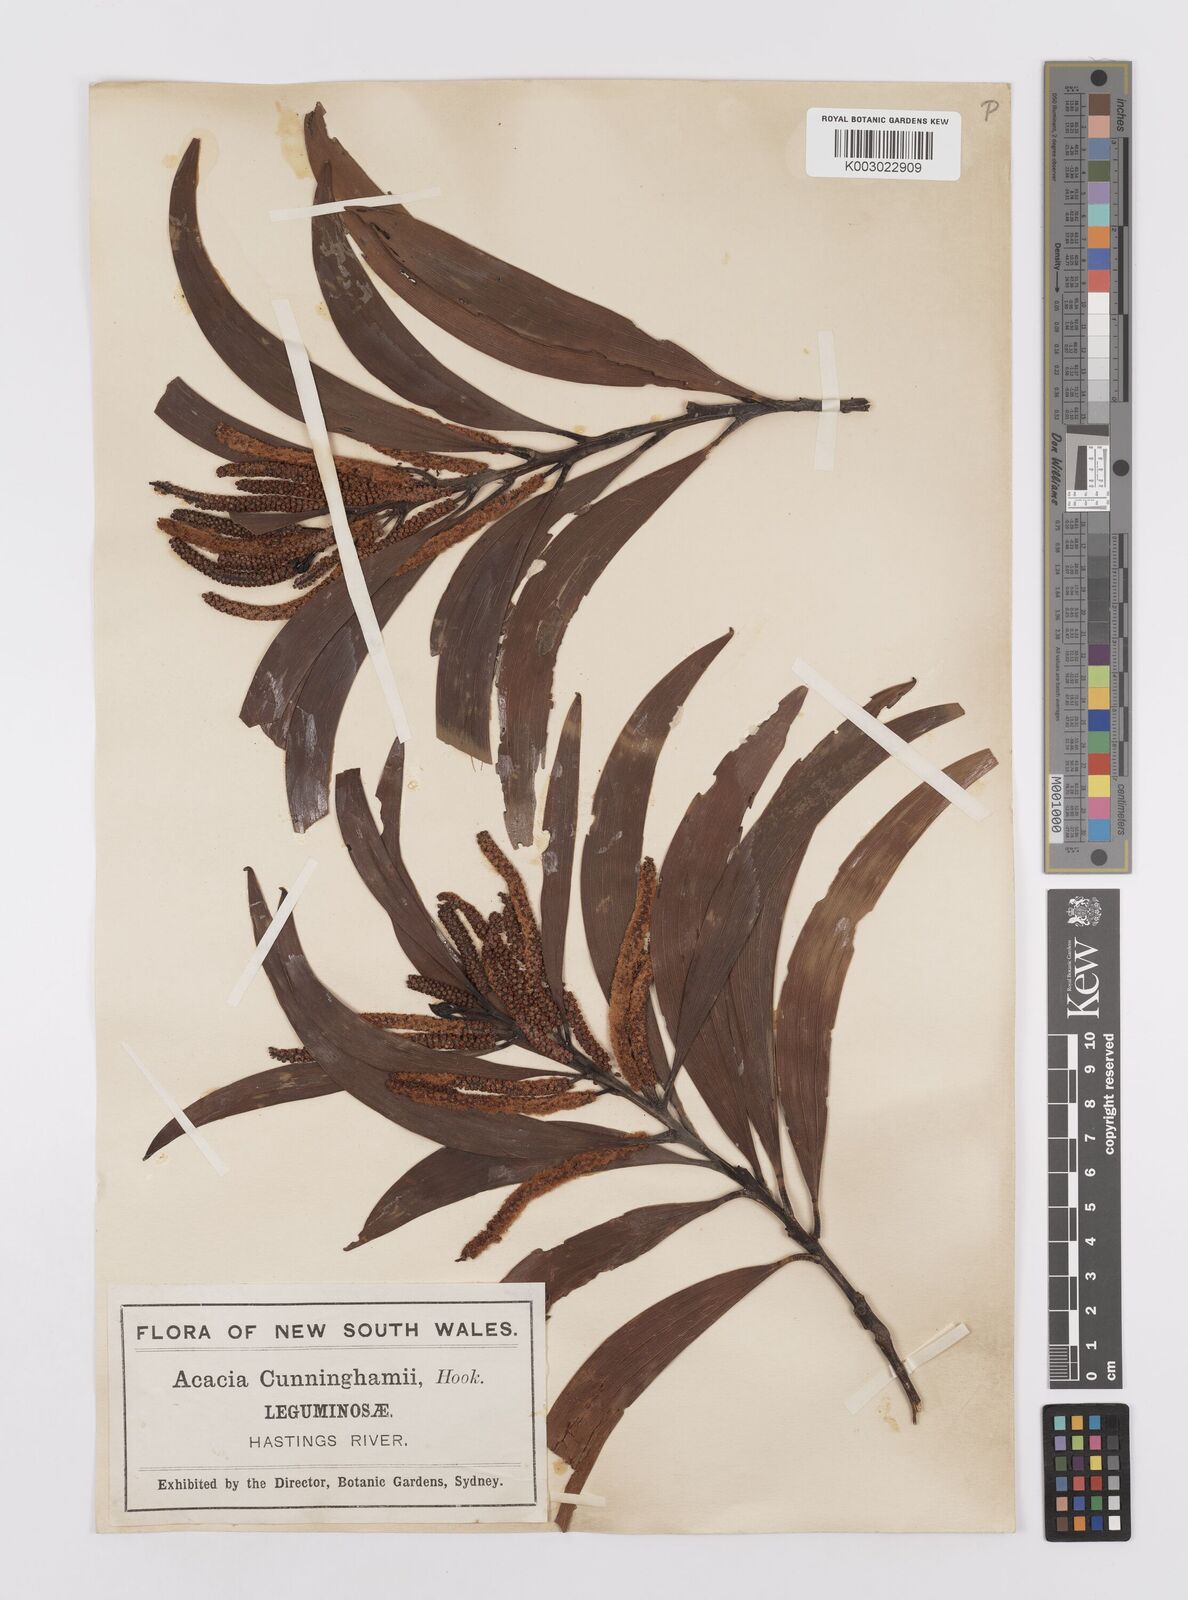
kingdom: Plantae
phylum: Tracheophyta
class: Magnoliopsida
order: Fabales
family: Fabaceae
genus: Acacia
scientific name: Acacia longispicata
